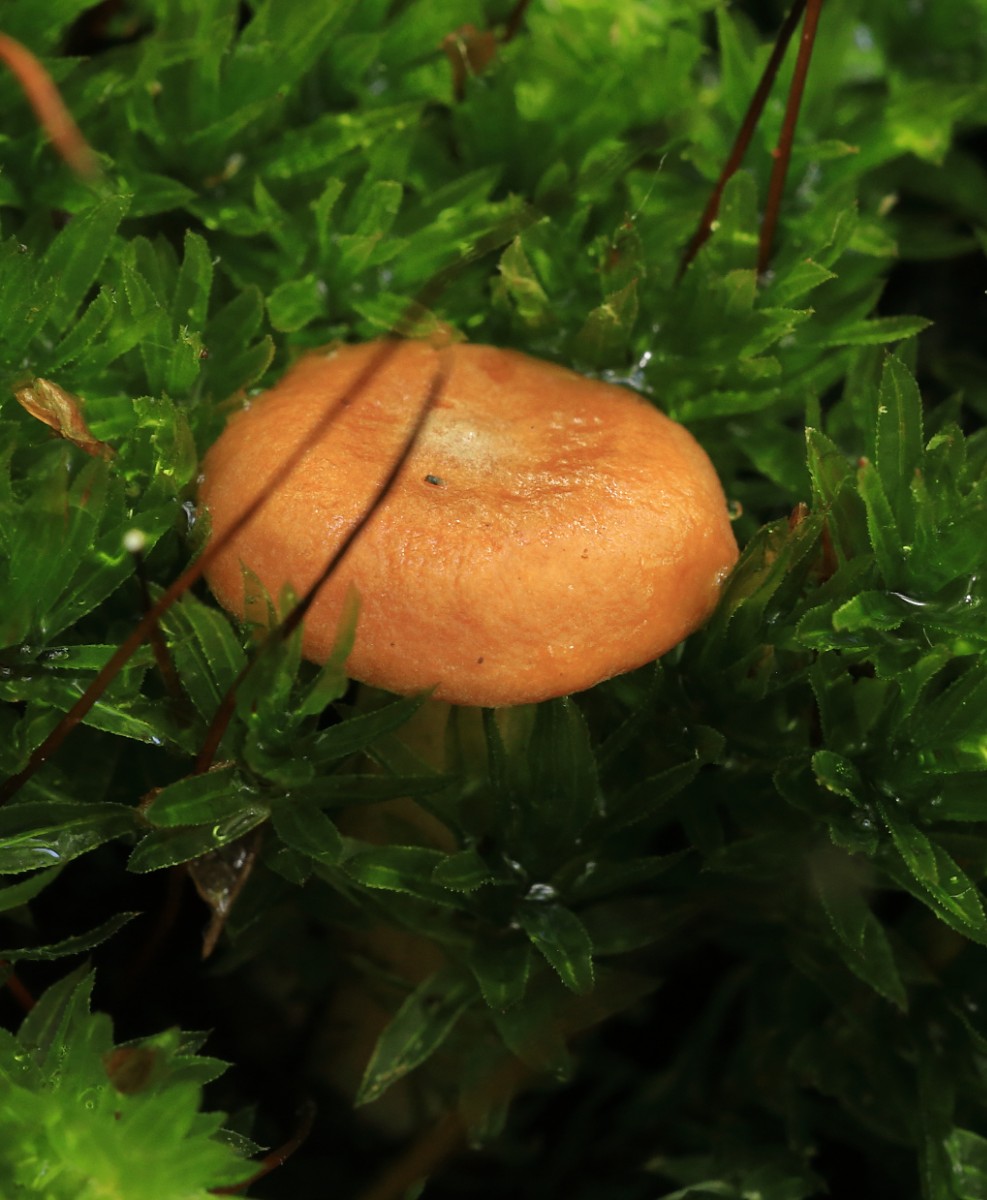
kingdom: Fungi
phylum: Basidiomycota
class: Agaricomycetes
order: Russulales
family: Russulaceae
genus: Lactarius
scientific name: Lactarius
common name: mælkehat
